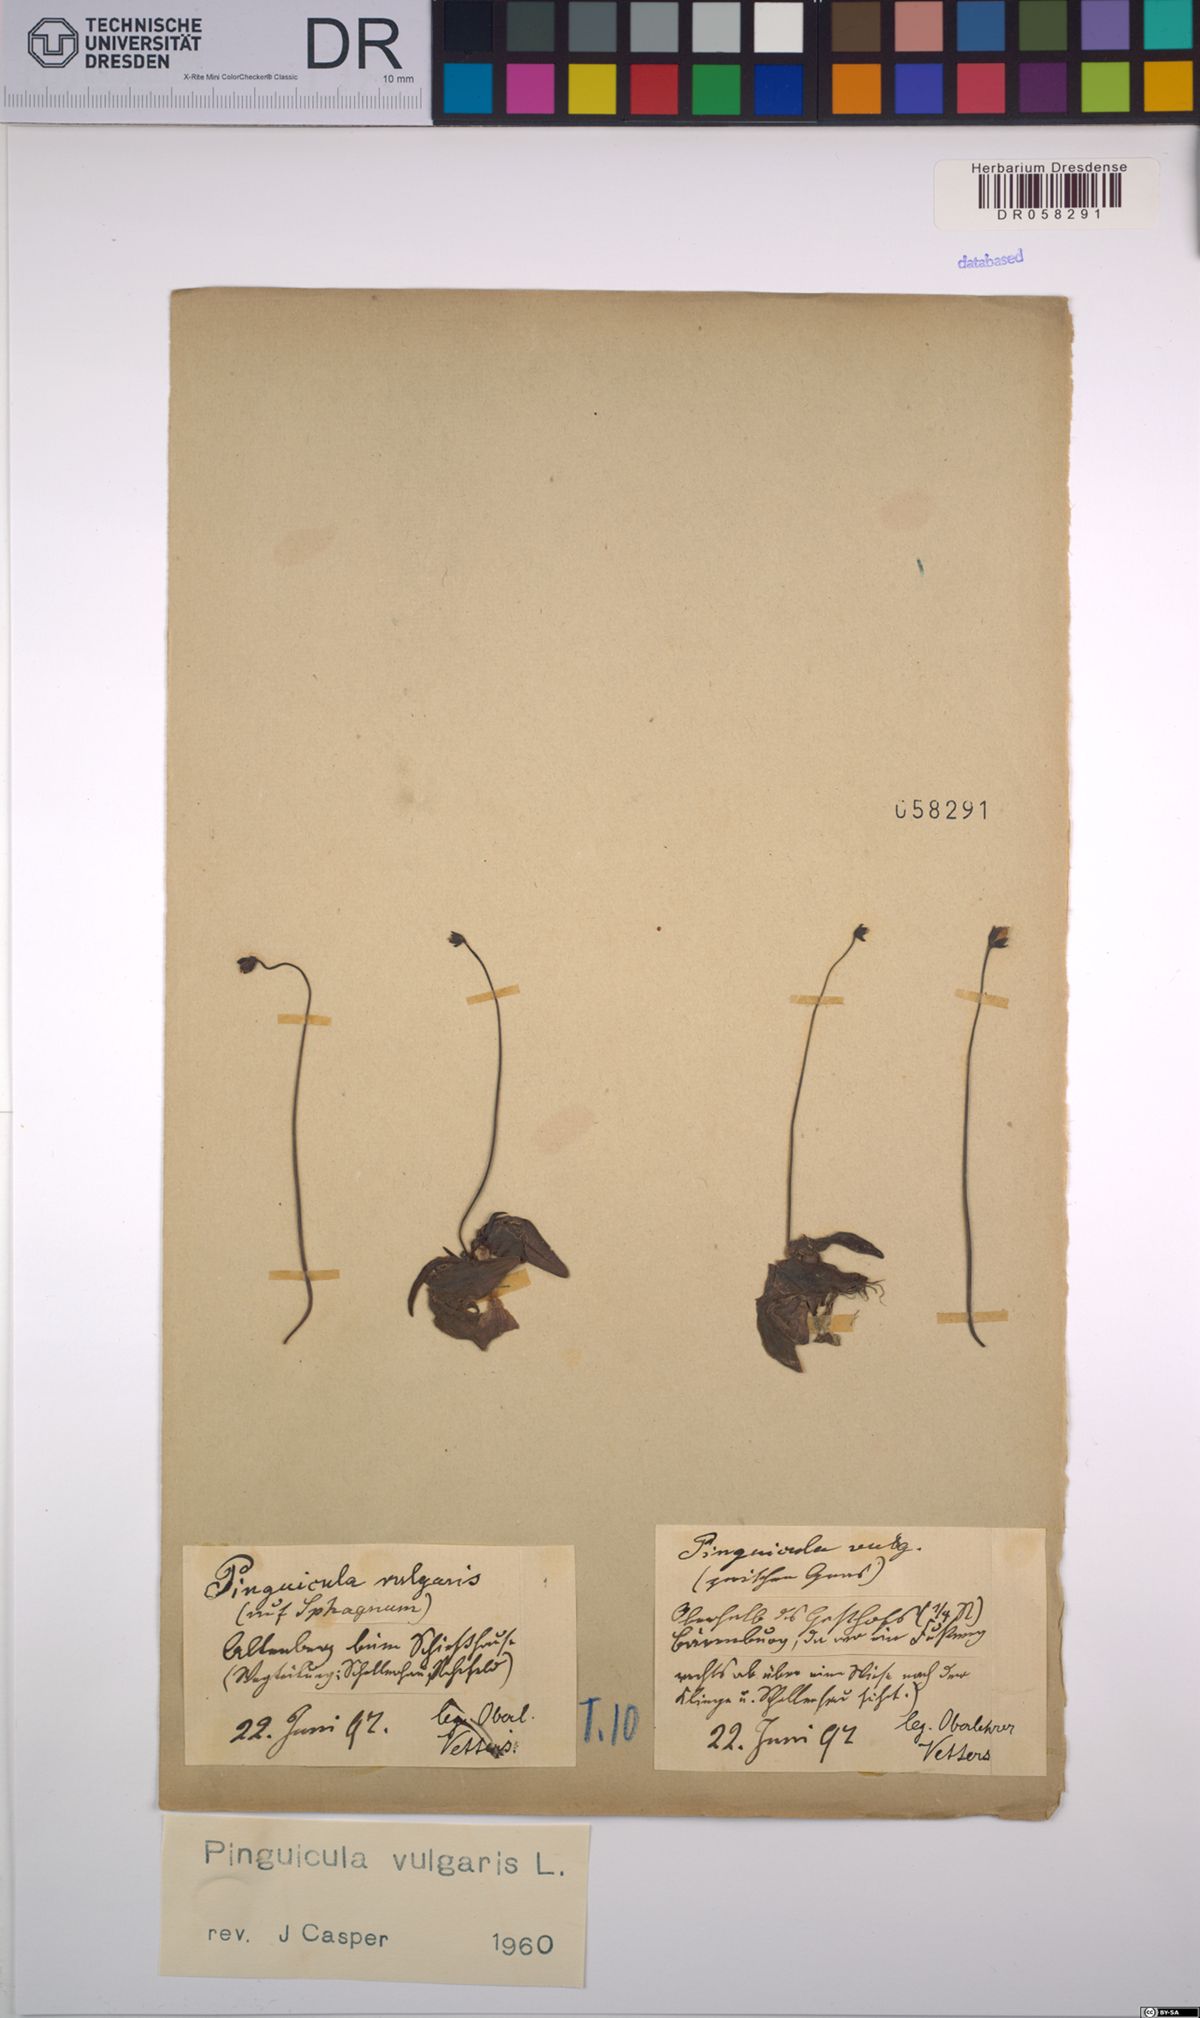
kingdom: Plantae
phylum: Tracheophyta
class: Magnoliopsida
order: Lamiales
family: Lentibulariaceae
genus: Pinguicula
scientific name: Pinguicula vulgaris
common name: Common butterwort
